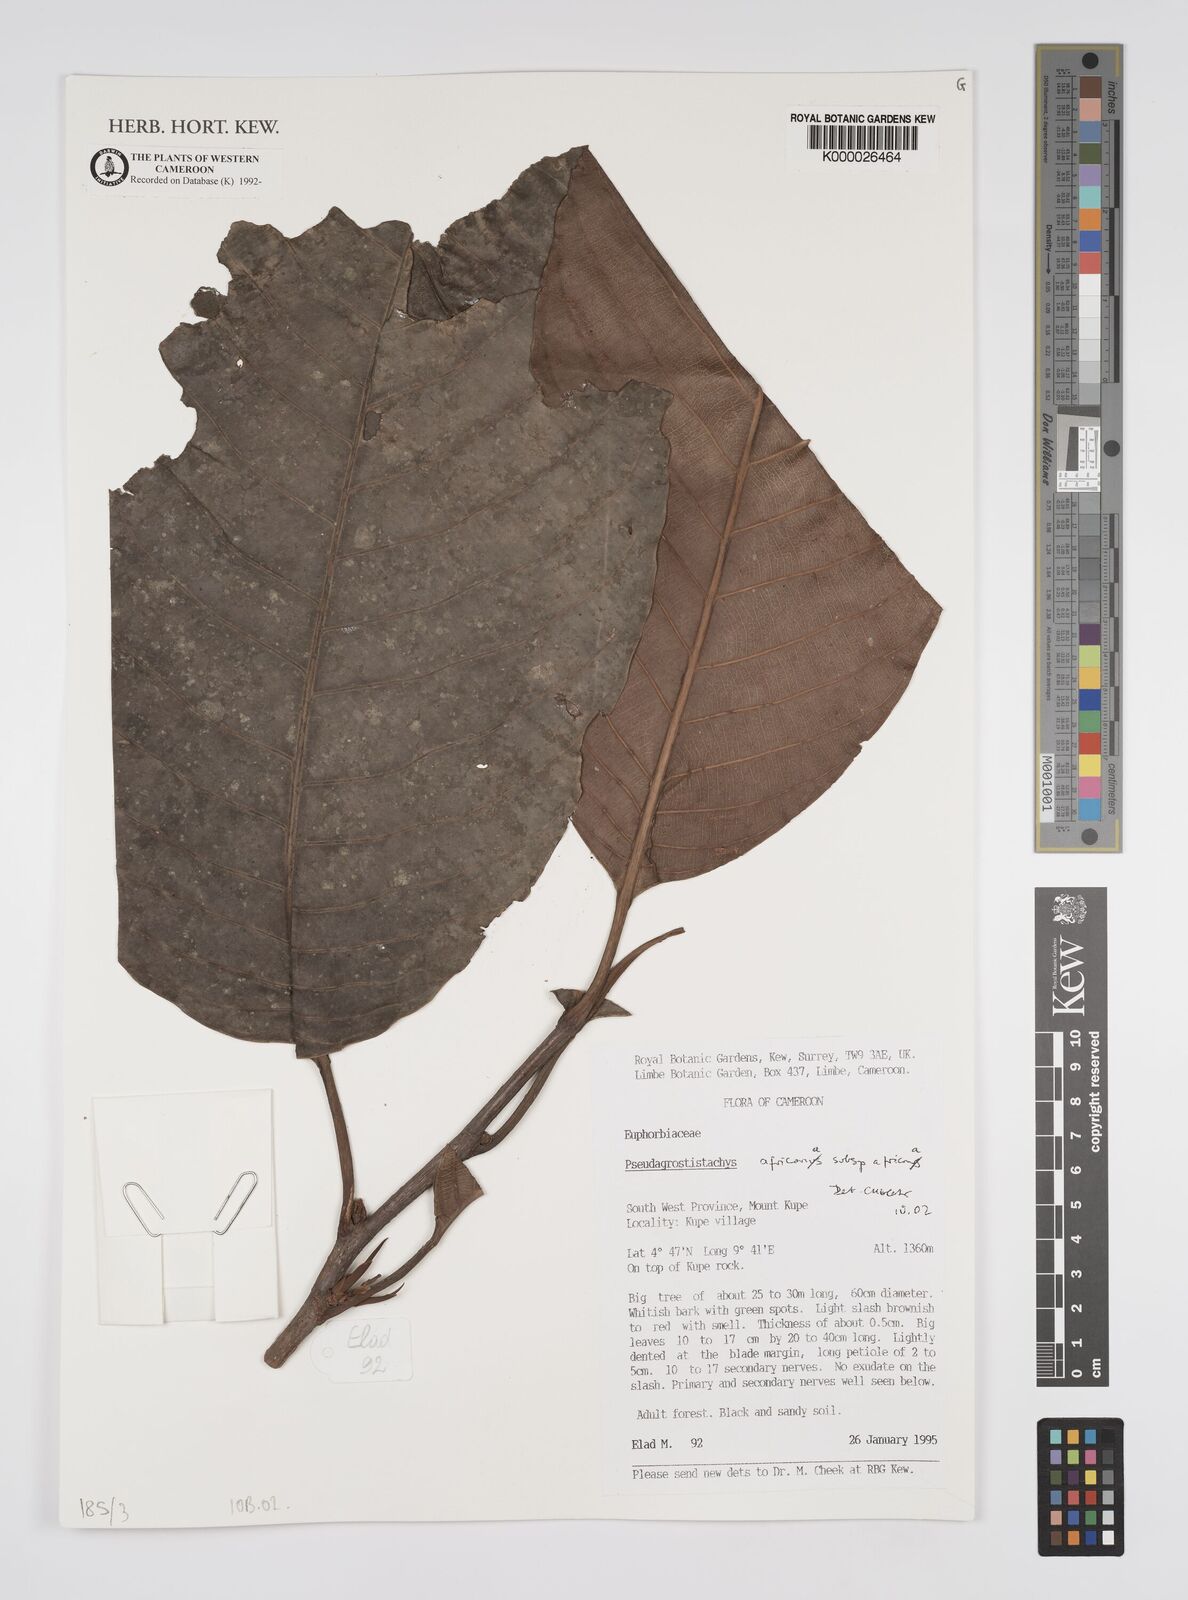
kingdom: Plantae
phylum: Tracheophyta
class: Magnoliopsida
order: Malpighiales
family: Euphorbiaceae
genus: Pseudagrostistachys
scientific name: Pseudagrostistachys
